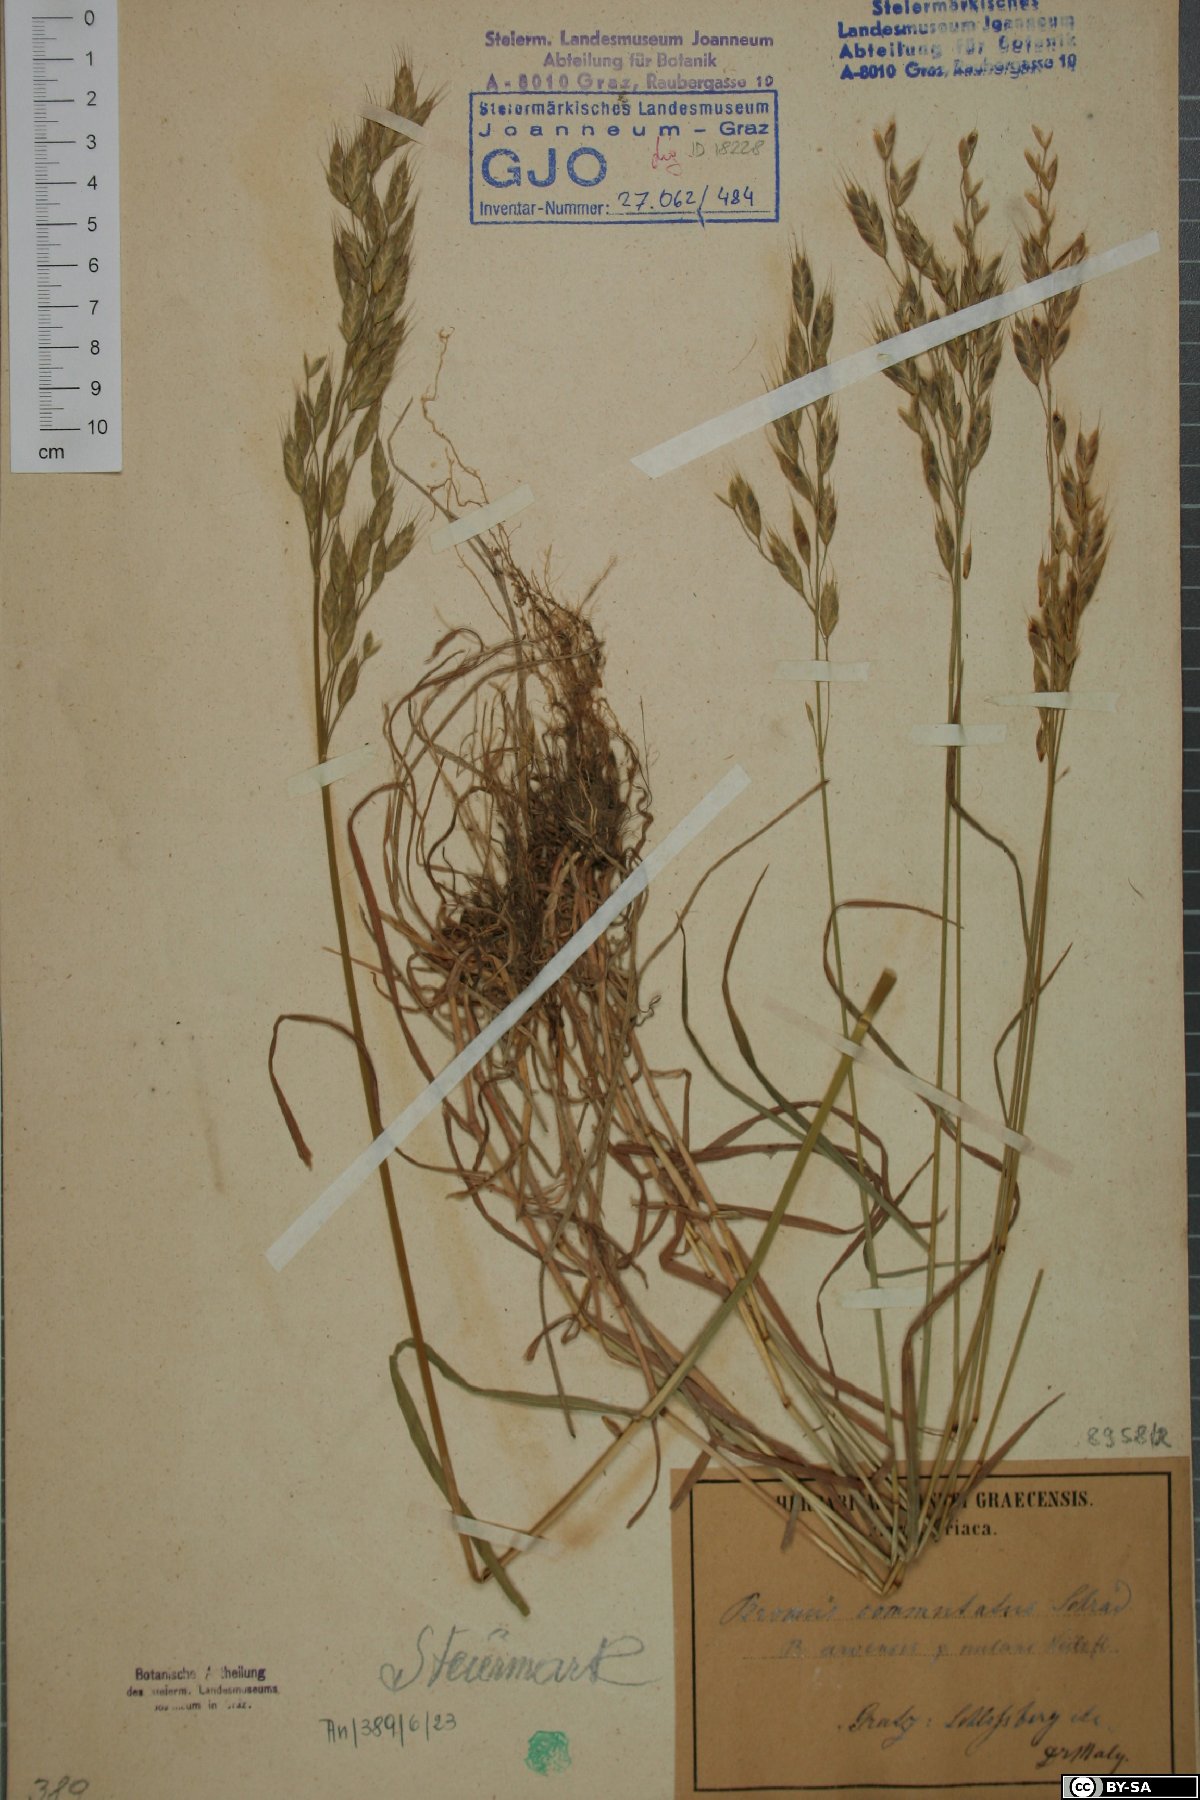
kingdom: Plantae
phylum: Tracheophyta
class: Liliopsida
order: Poales
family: Poaceae
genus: Bromus
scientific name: Bromus commutatus
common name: Meadow brome
